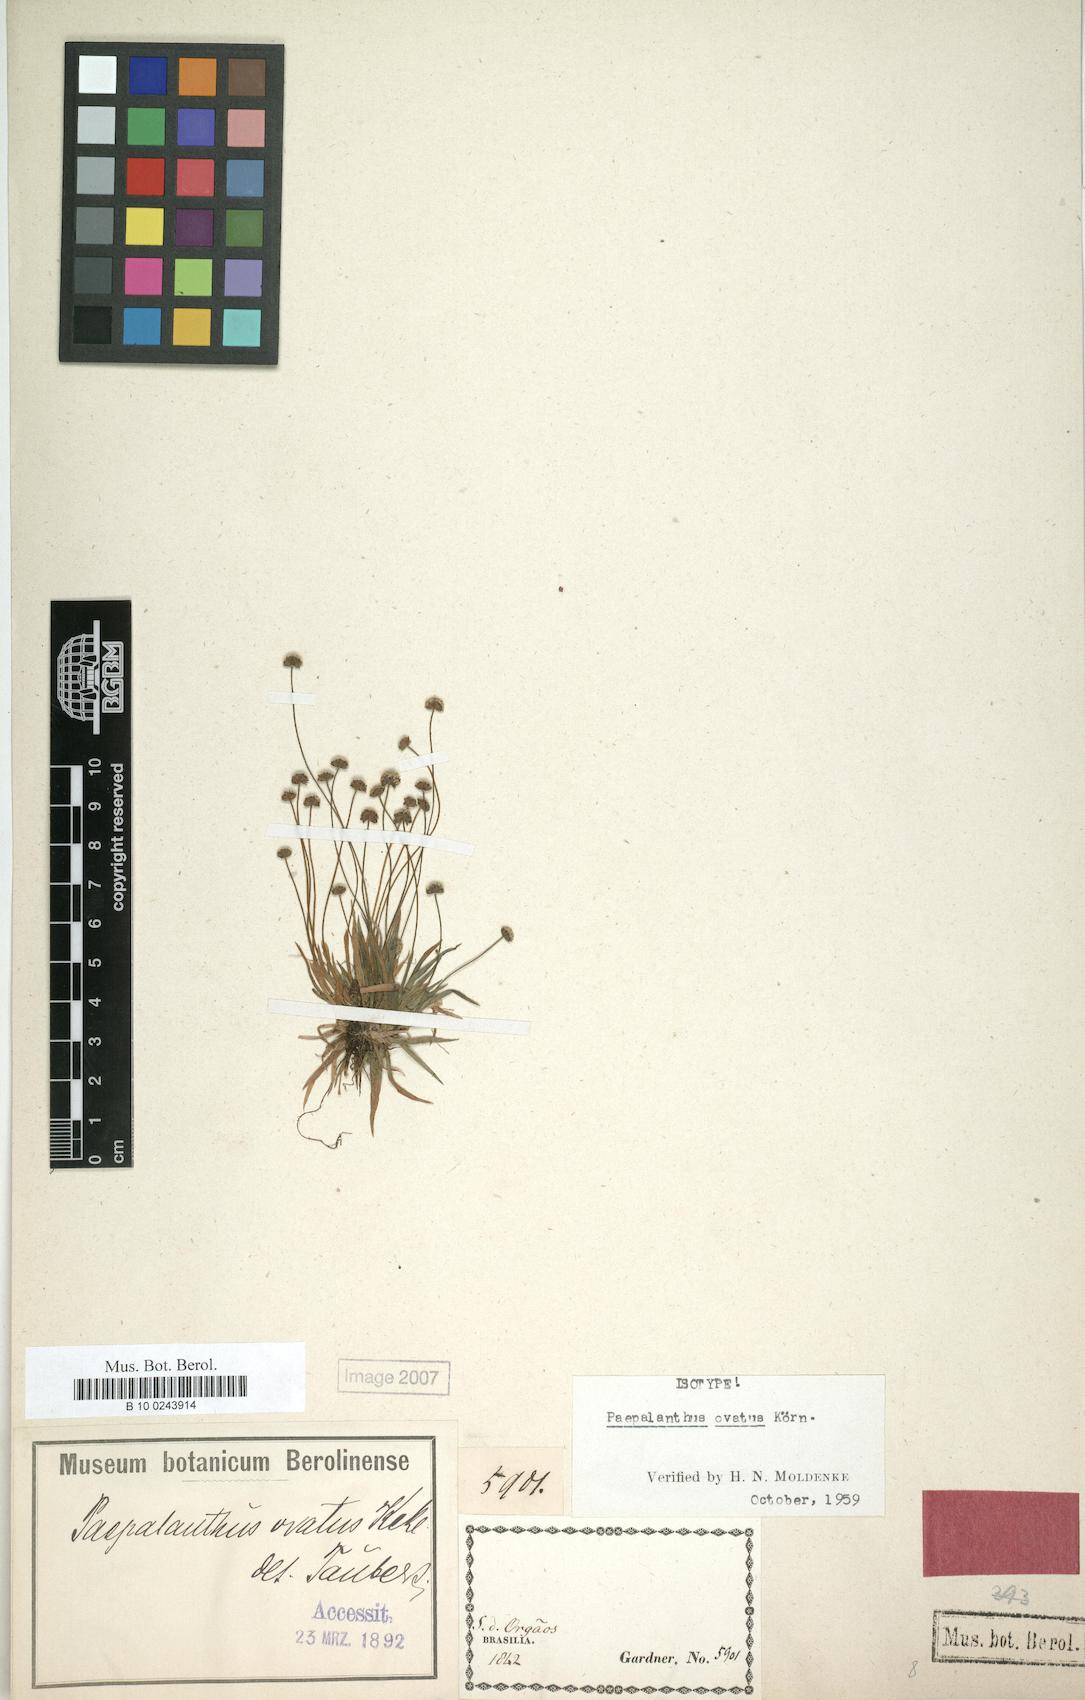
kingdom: Plantae
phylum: Tracheophyta
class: Liliopsida
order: Poales
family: Eriocaulaceae
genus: Paepalanthus
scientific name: Paepalanthus ovatus
